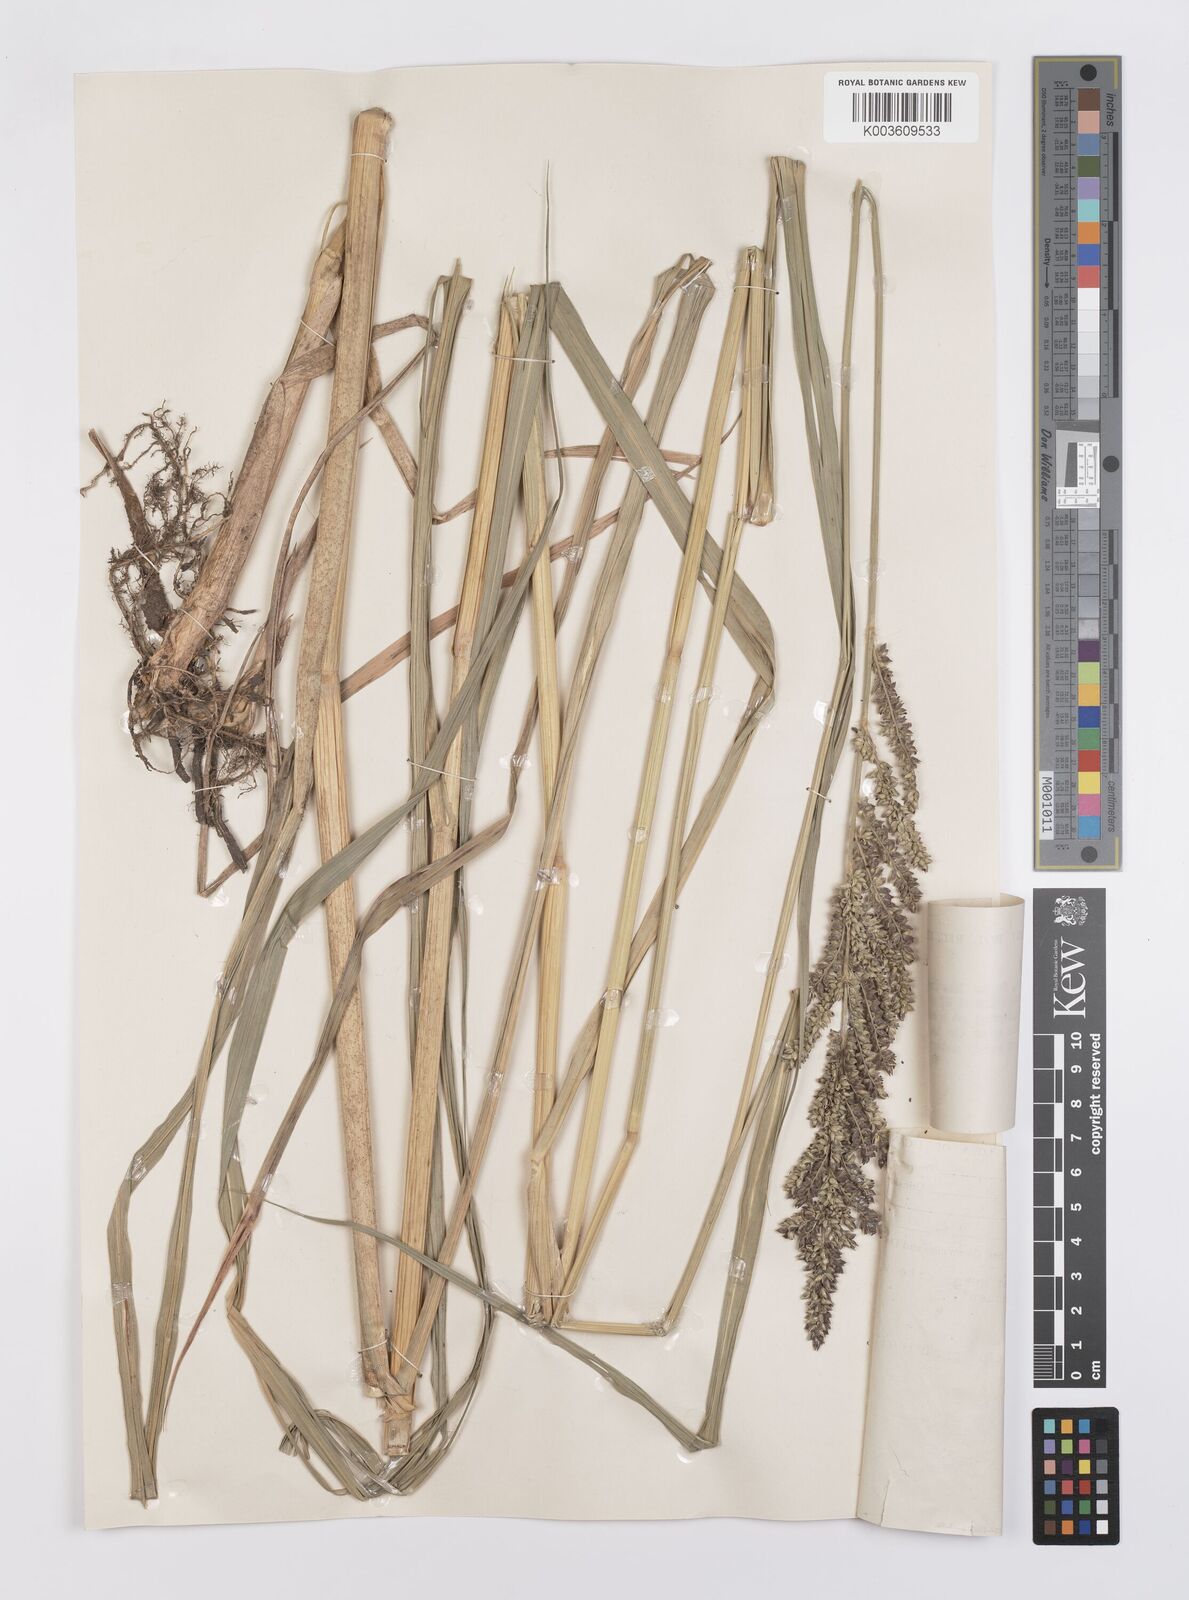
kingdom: Plantae
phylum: Tracheophyta
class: Liliopsida
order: Poales
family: Poaceae
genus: Echinochloa
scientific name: Echinochloa pyramidalis
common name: Antelope grass
